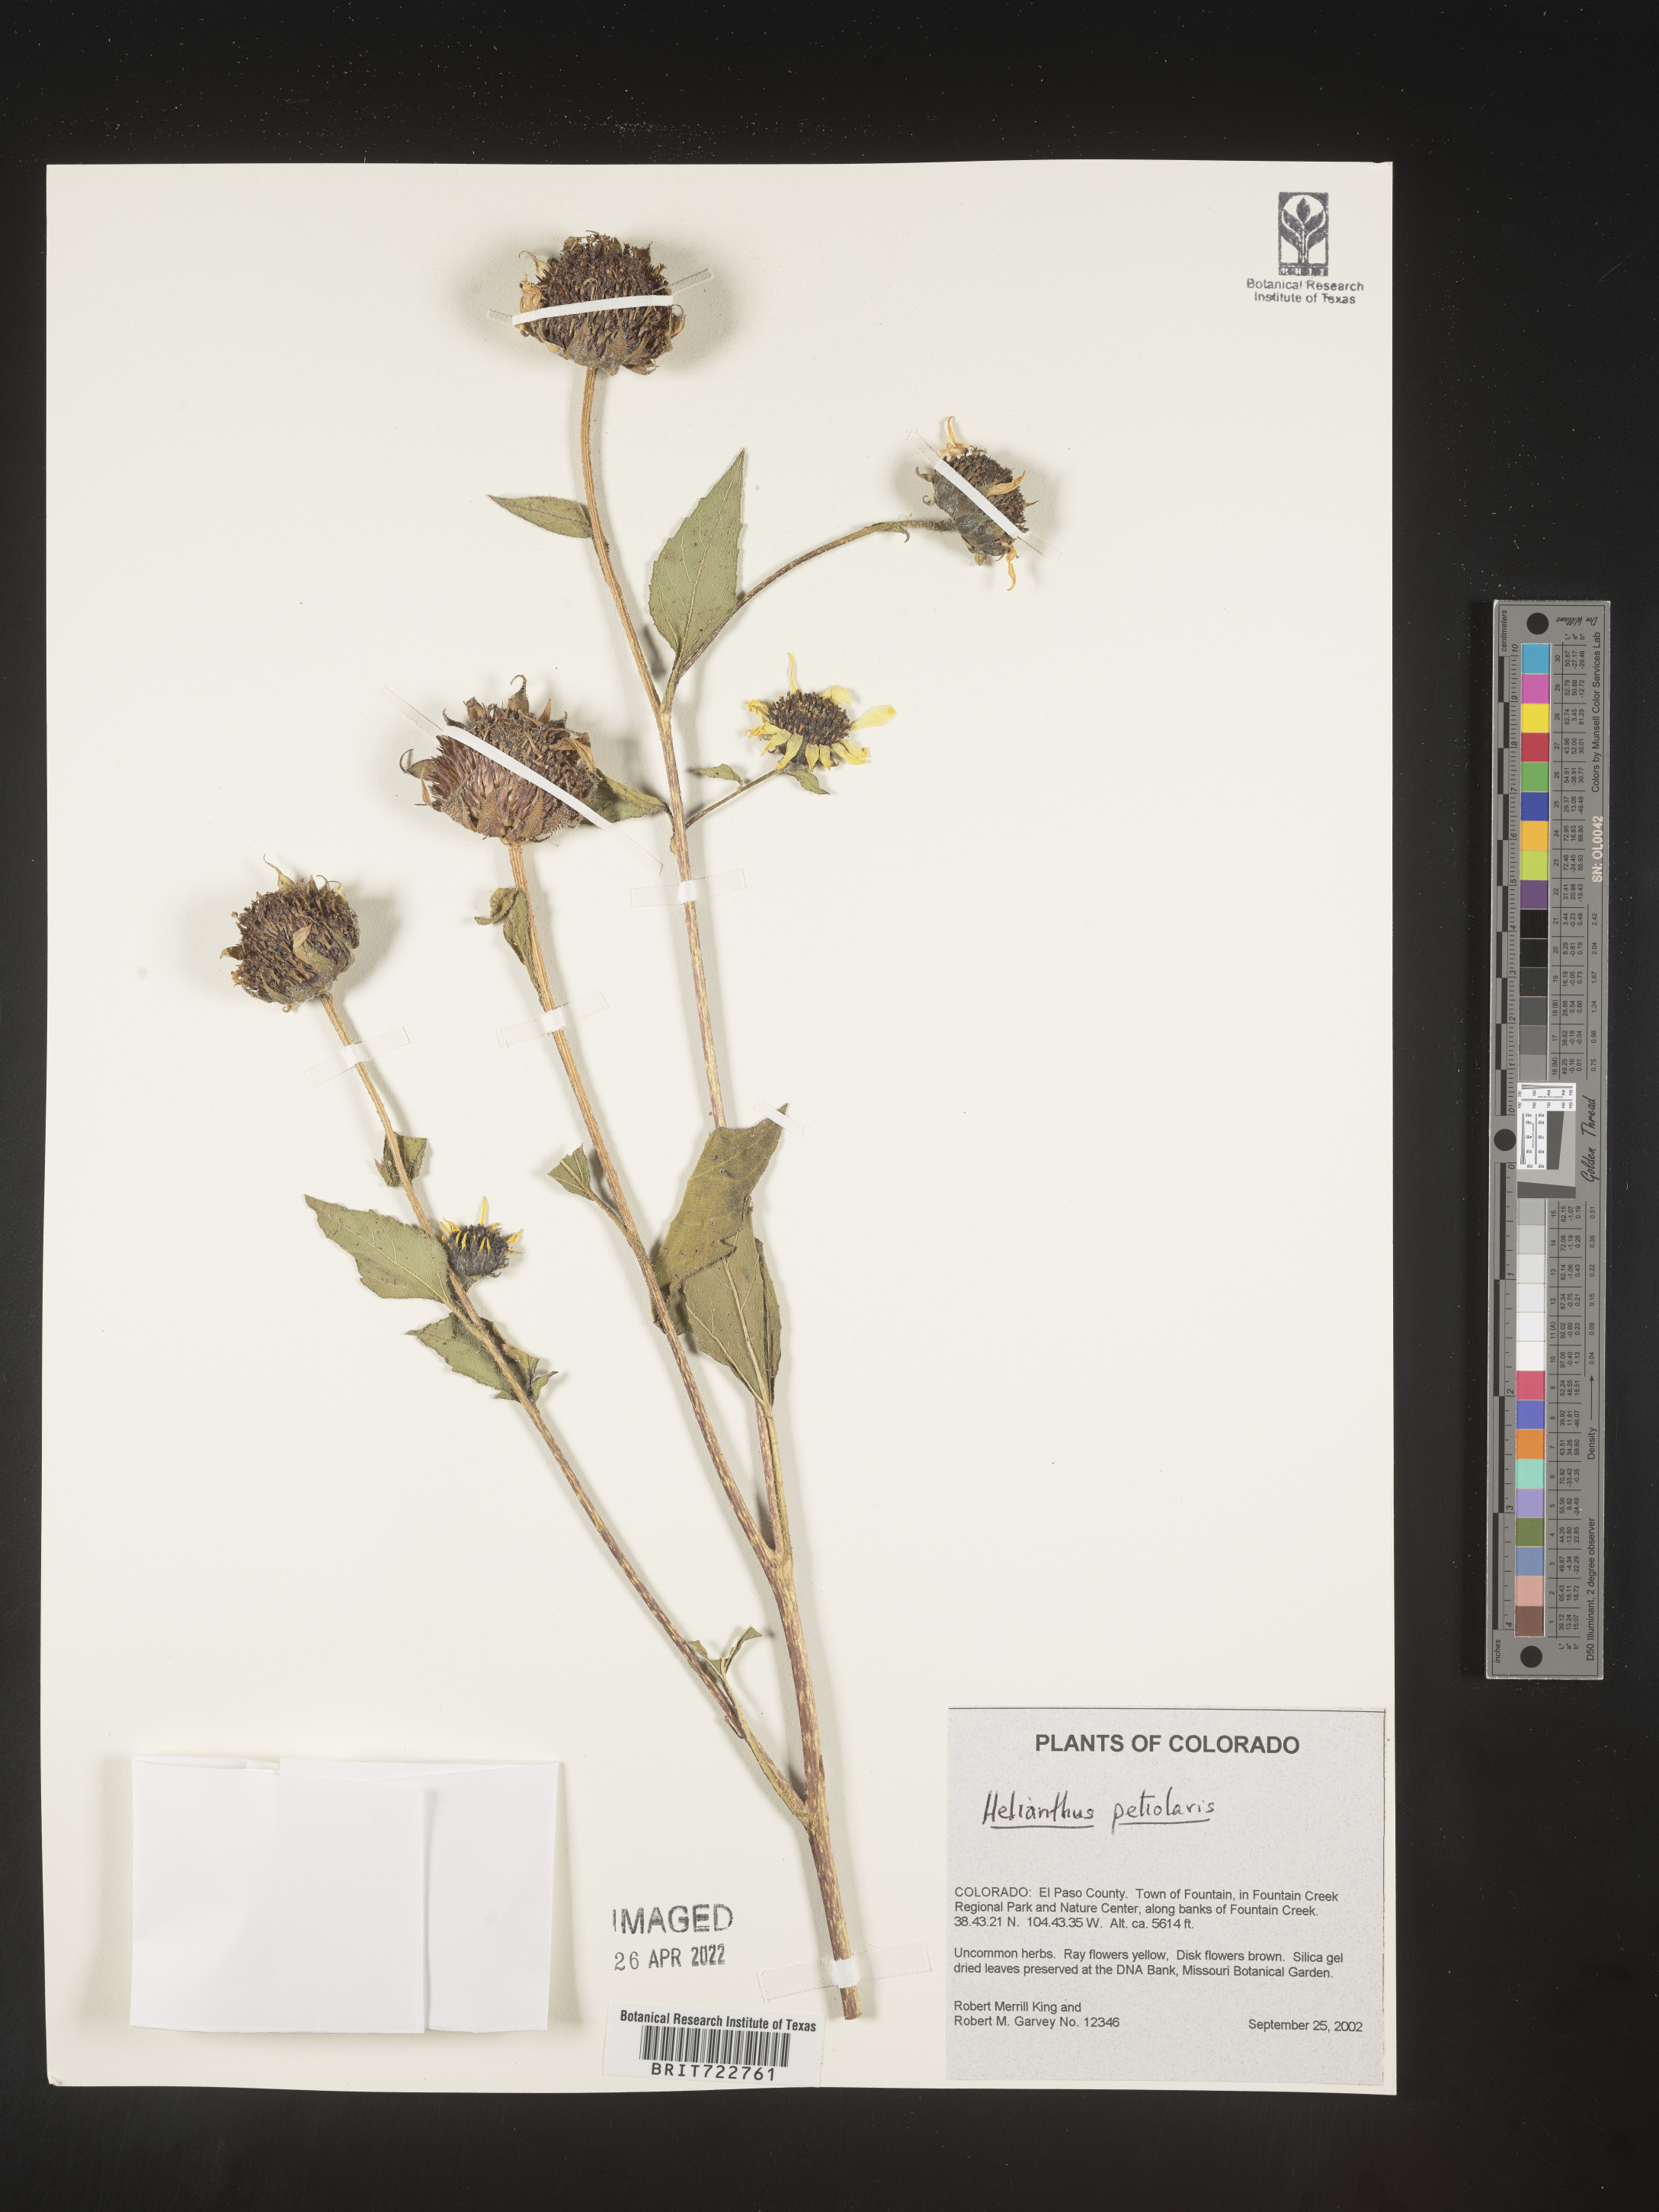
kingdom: Plantae
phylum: Tracheophyta
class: Magnoliopsida
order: Asterales
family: Asteraceae
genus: Helianthus
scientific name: Helianthus petiolaris
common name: Lesser sunflower
